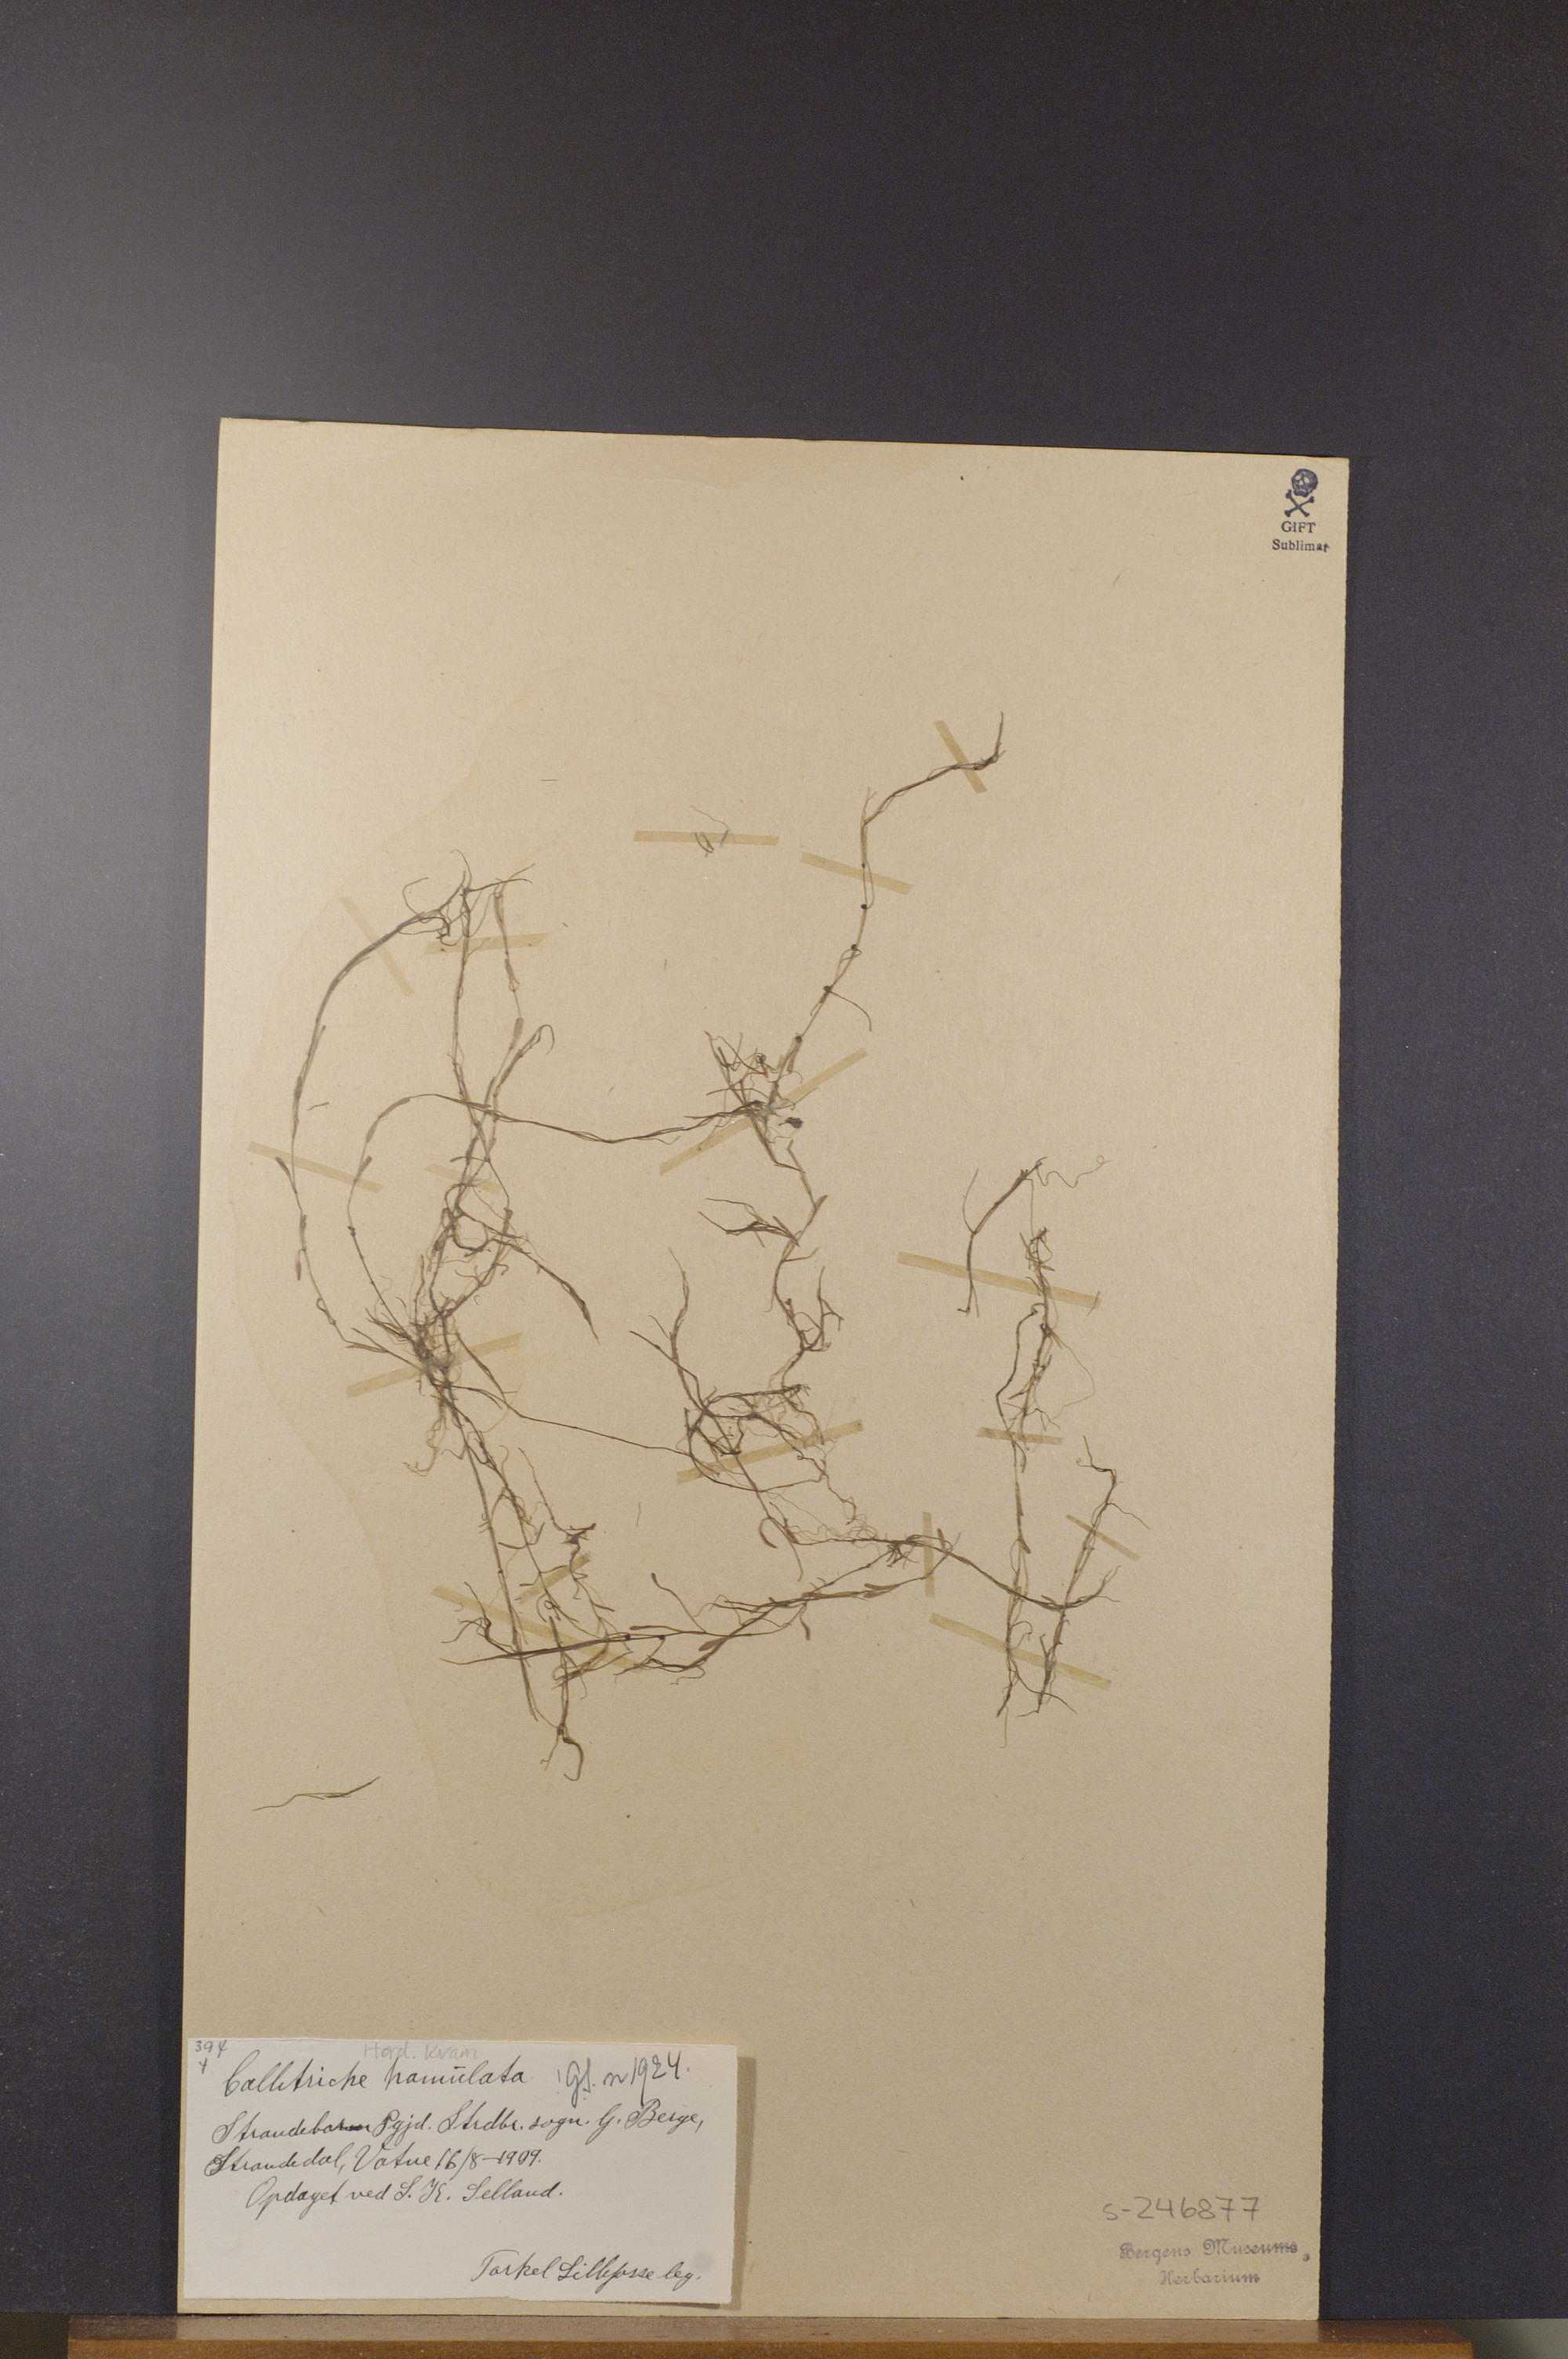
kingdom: Plantae
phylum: Tracheophyta
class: Magnoliopsida
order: Lamiales
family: Plantaginaceae
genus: Callitriche
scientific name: Callitriche hamulata
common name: Intermediate water-starwort
